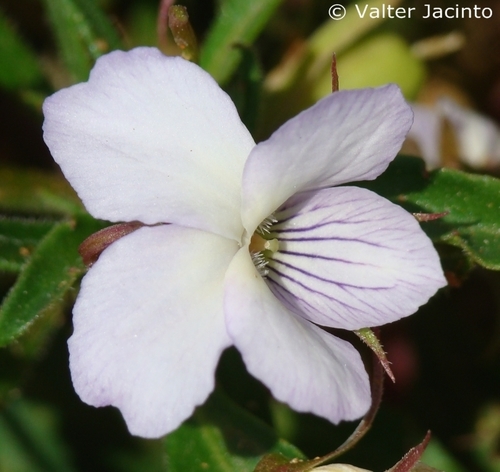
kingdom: Plantae
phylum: Tracheophyta
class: Magnoliopsida
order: Malpighiales
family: Violaceae
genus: Viola
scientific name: Viola arborescens
